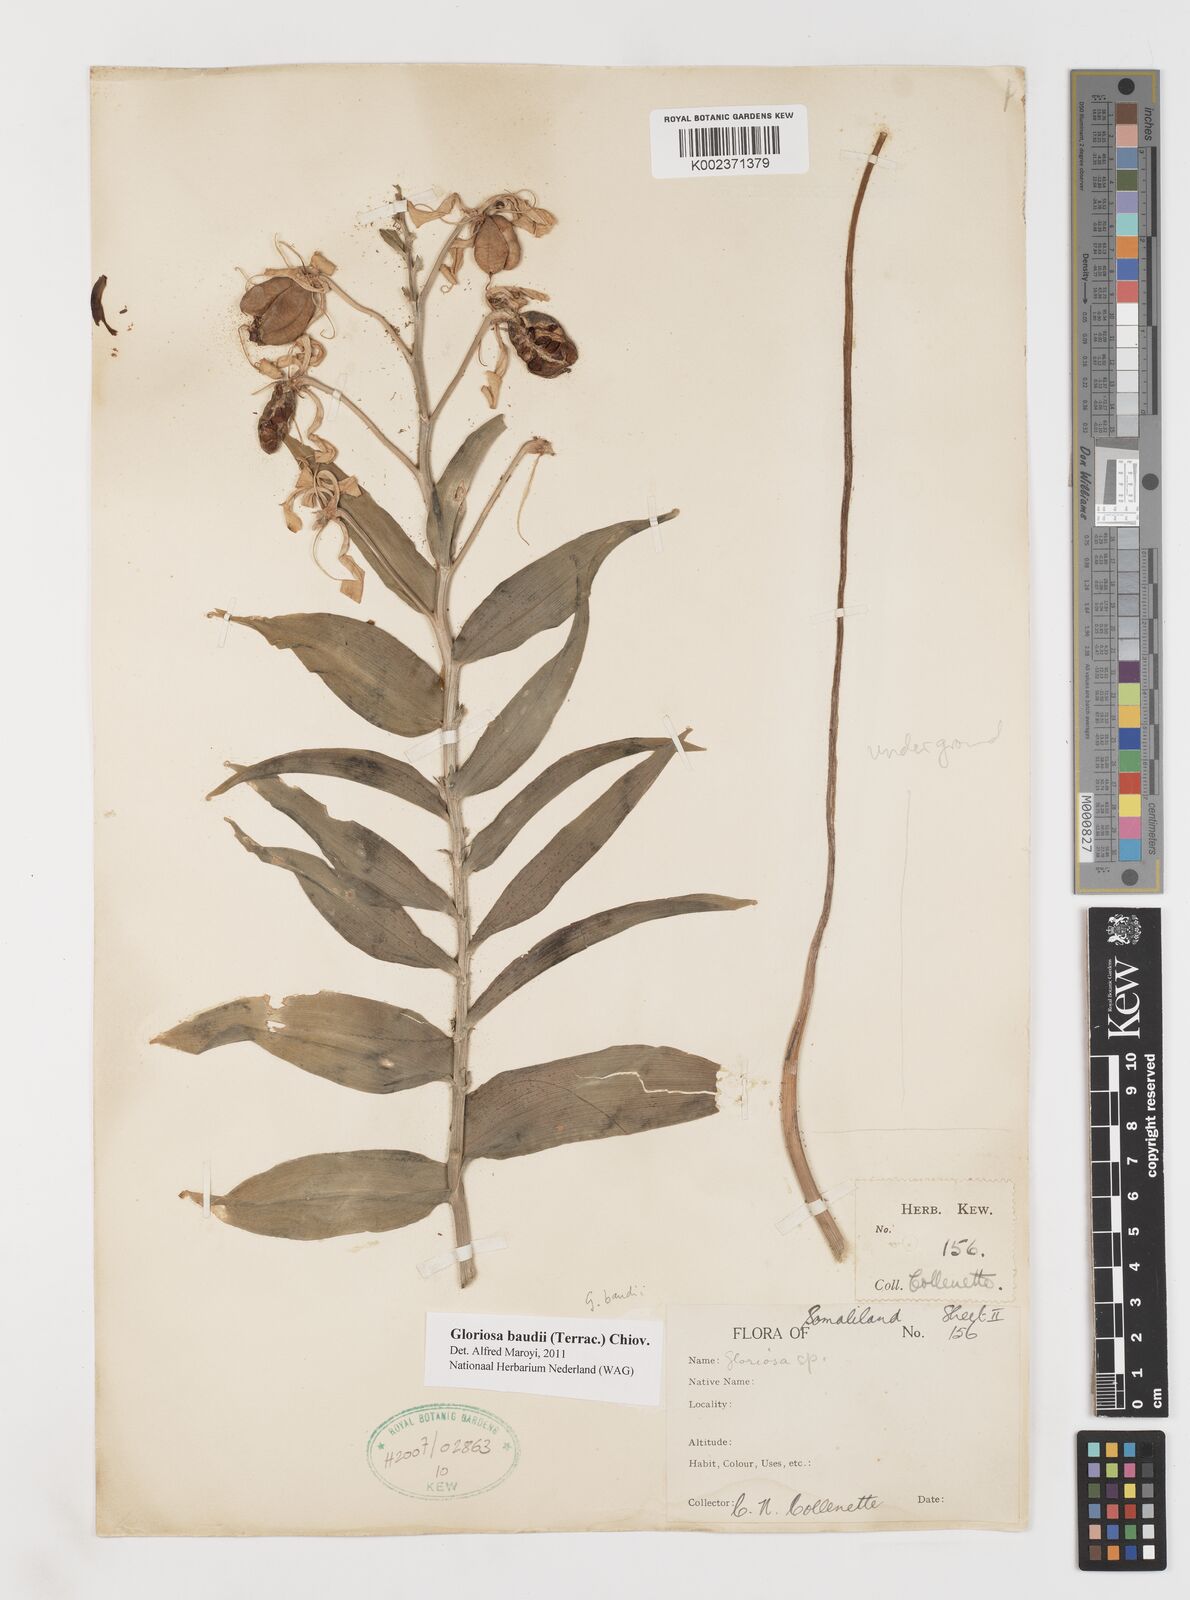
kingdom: Plantae
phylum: Tracheophyta
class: Liliopsida
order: Liliales
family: Colchicaceae
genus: Gloriosa
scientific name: Gloriosa baudii
